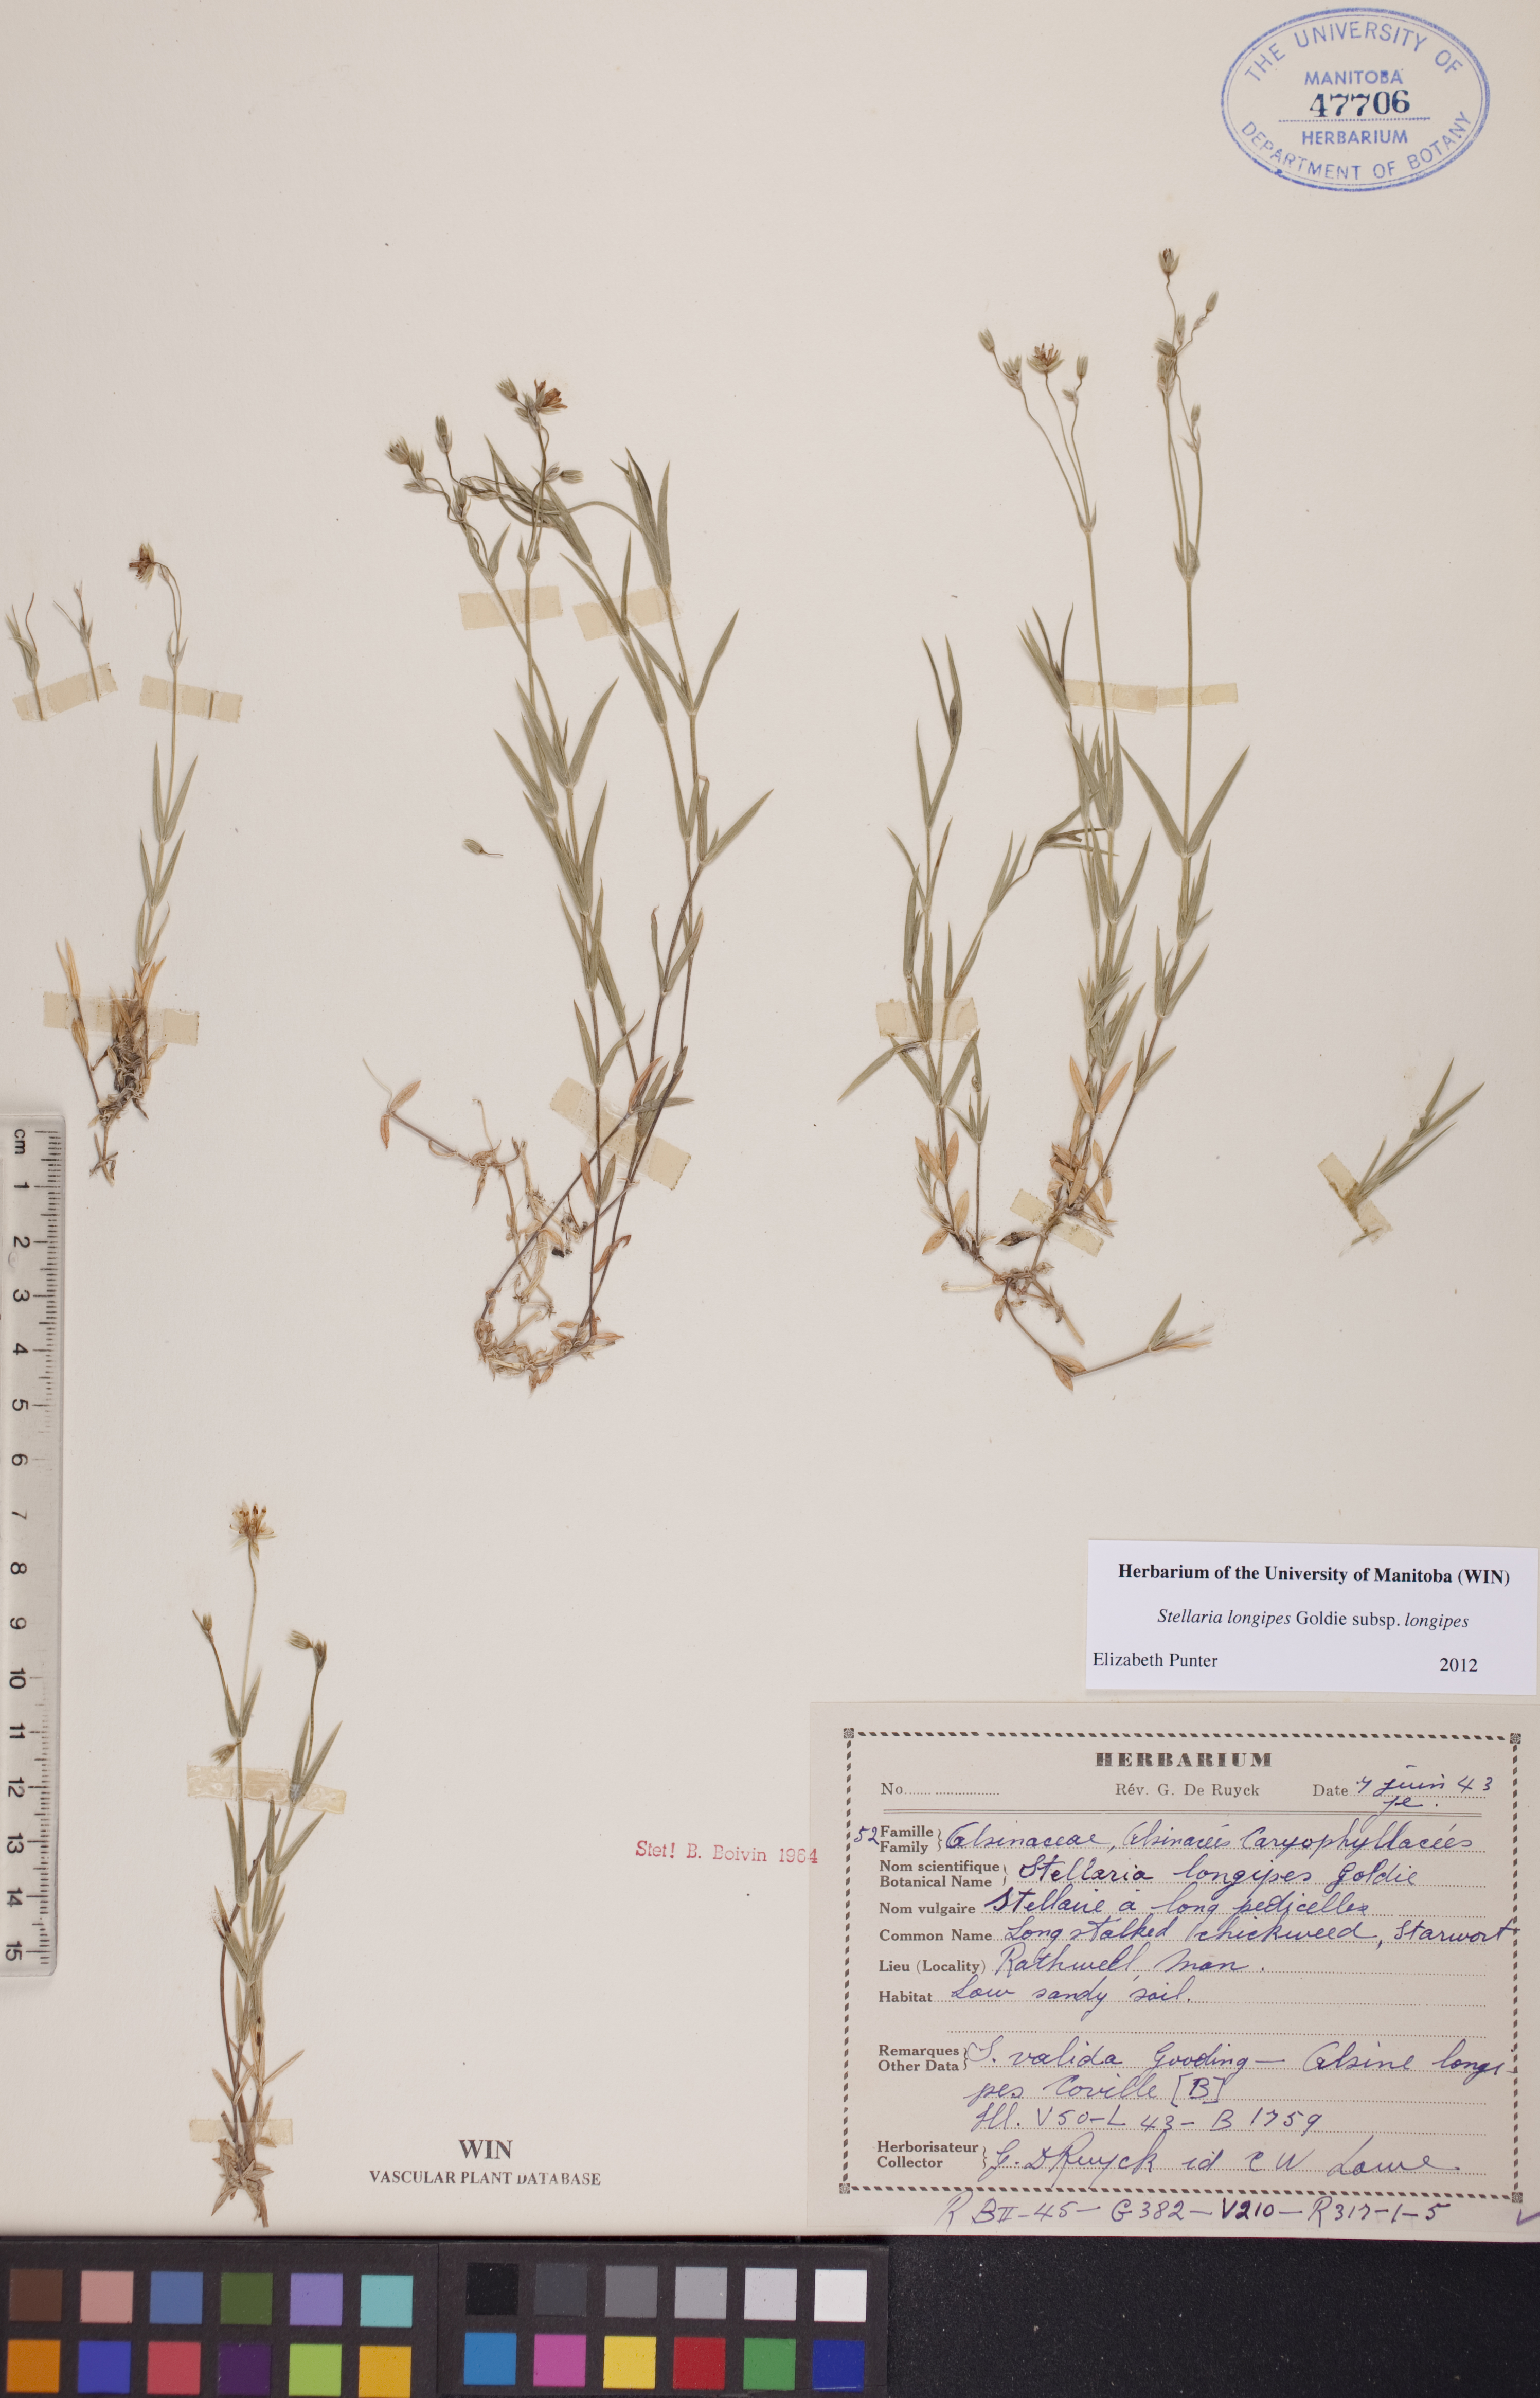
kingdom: Plantae
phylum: Tracheophyta
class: Magnoliopsida
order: Caryophyllales
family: Caryophyllaceae
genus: Stellaria
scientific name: Stellaria longipes
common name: Goldie's starwort
